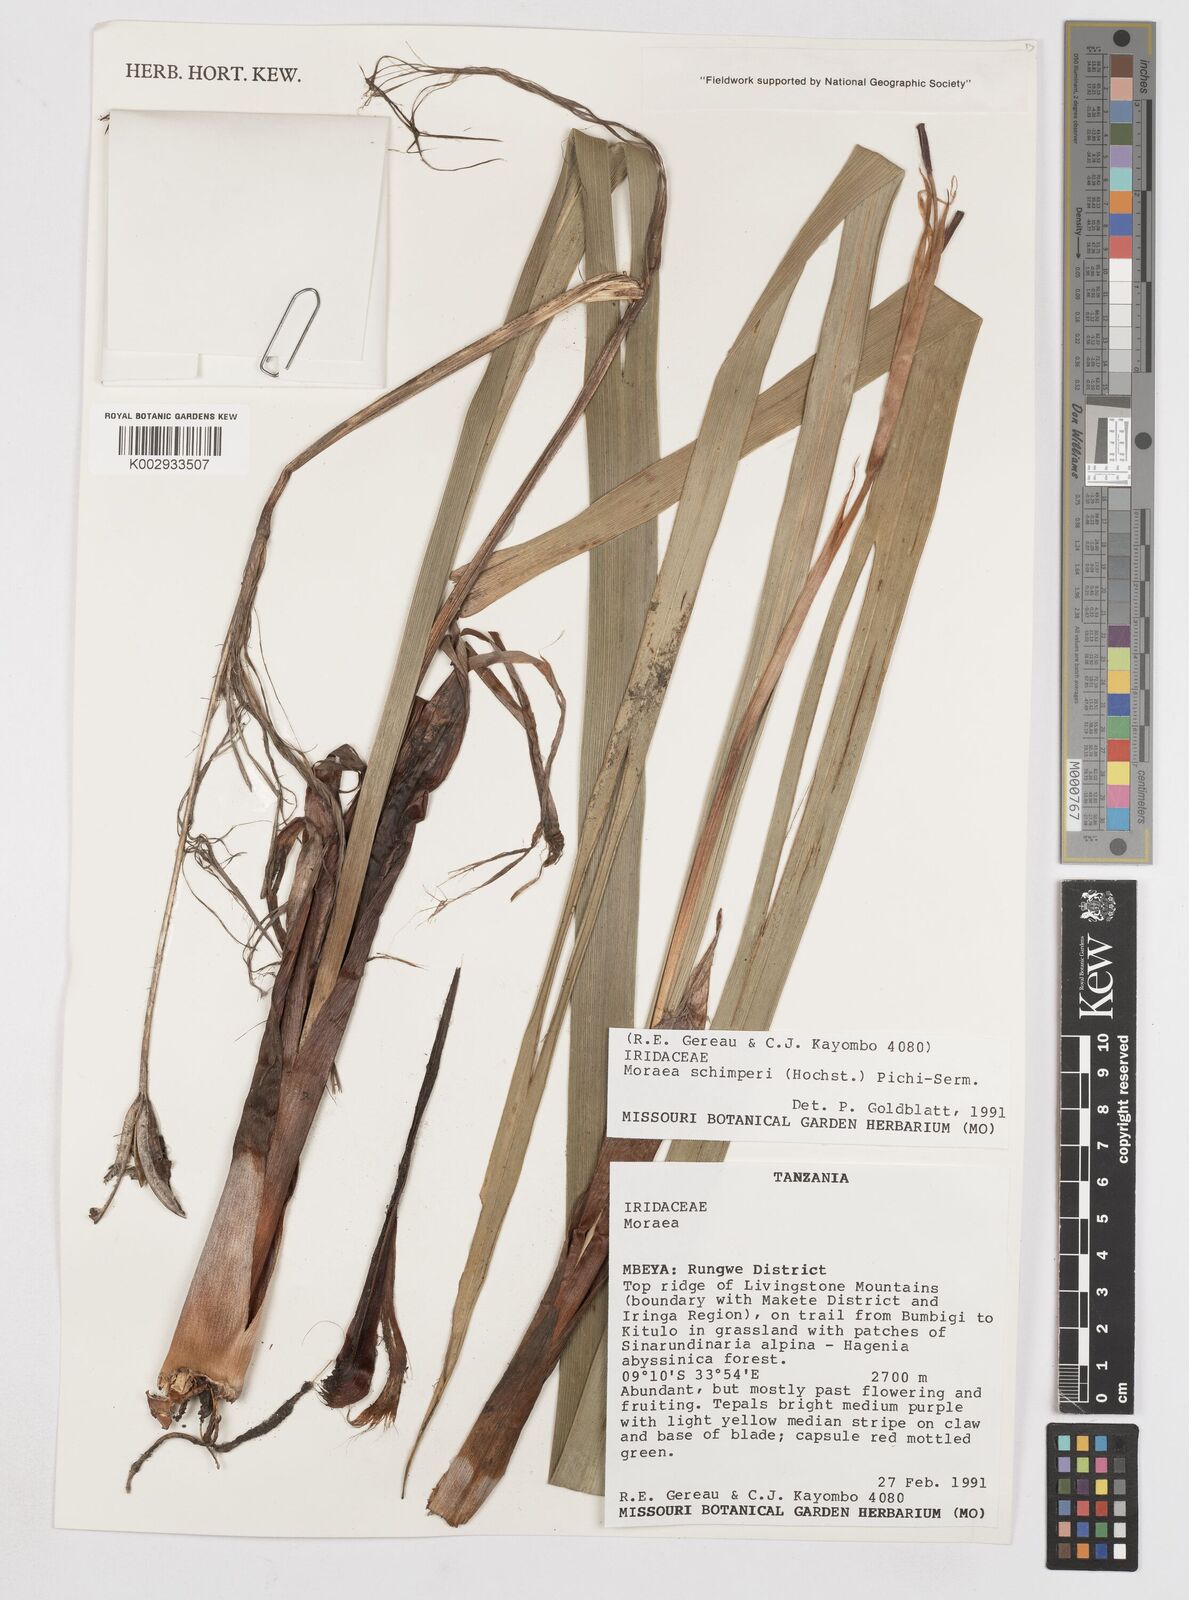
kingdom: Plantae
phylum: Tracheophyta
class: Liliopsida
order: Asparagales
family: Iridaceae
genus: Moraea
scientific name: Moraea schimperi
